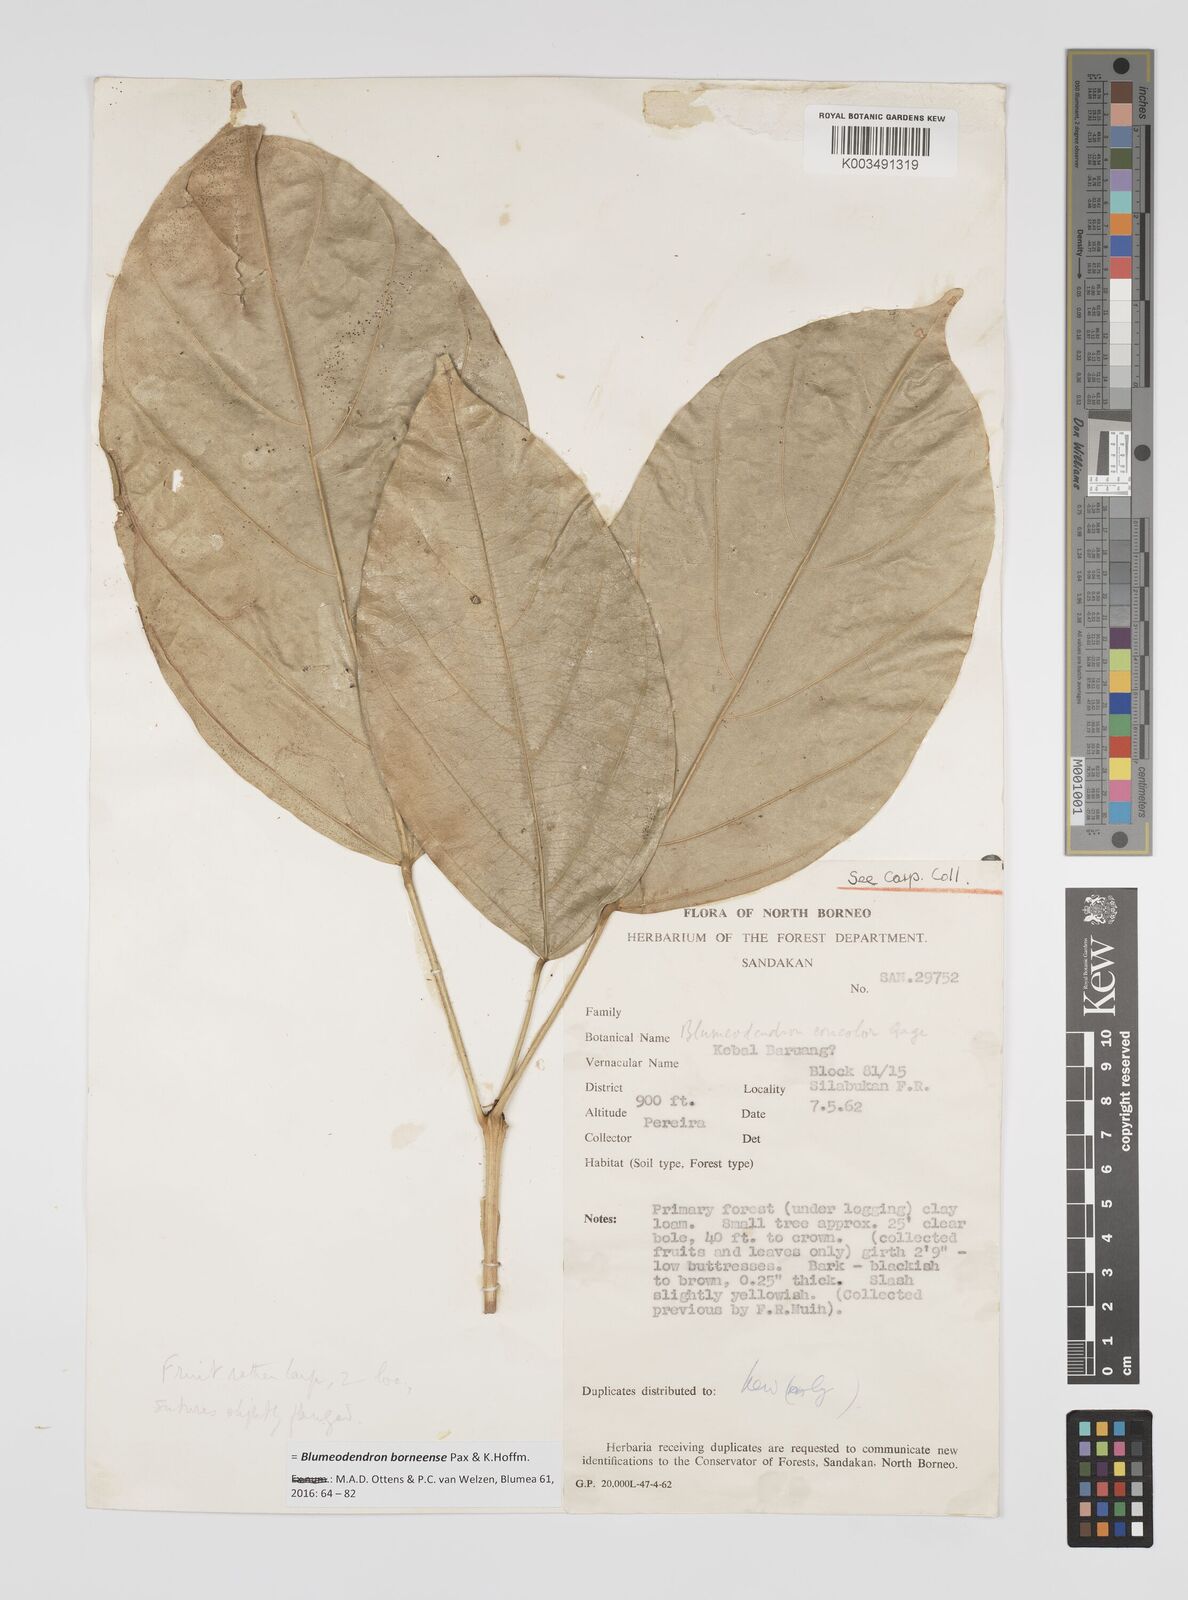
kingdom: Plantae
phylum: Tracheophyta
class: Magnoliopsida
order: Malpighiales
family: Euphorbiaceae
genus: Blumeodendron
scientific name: Blumeodendron borneense
